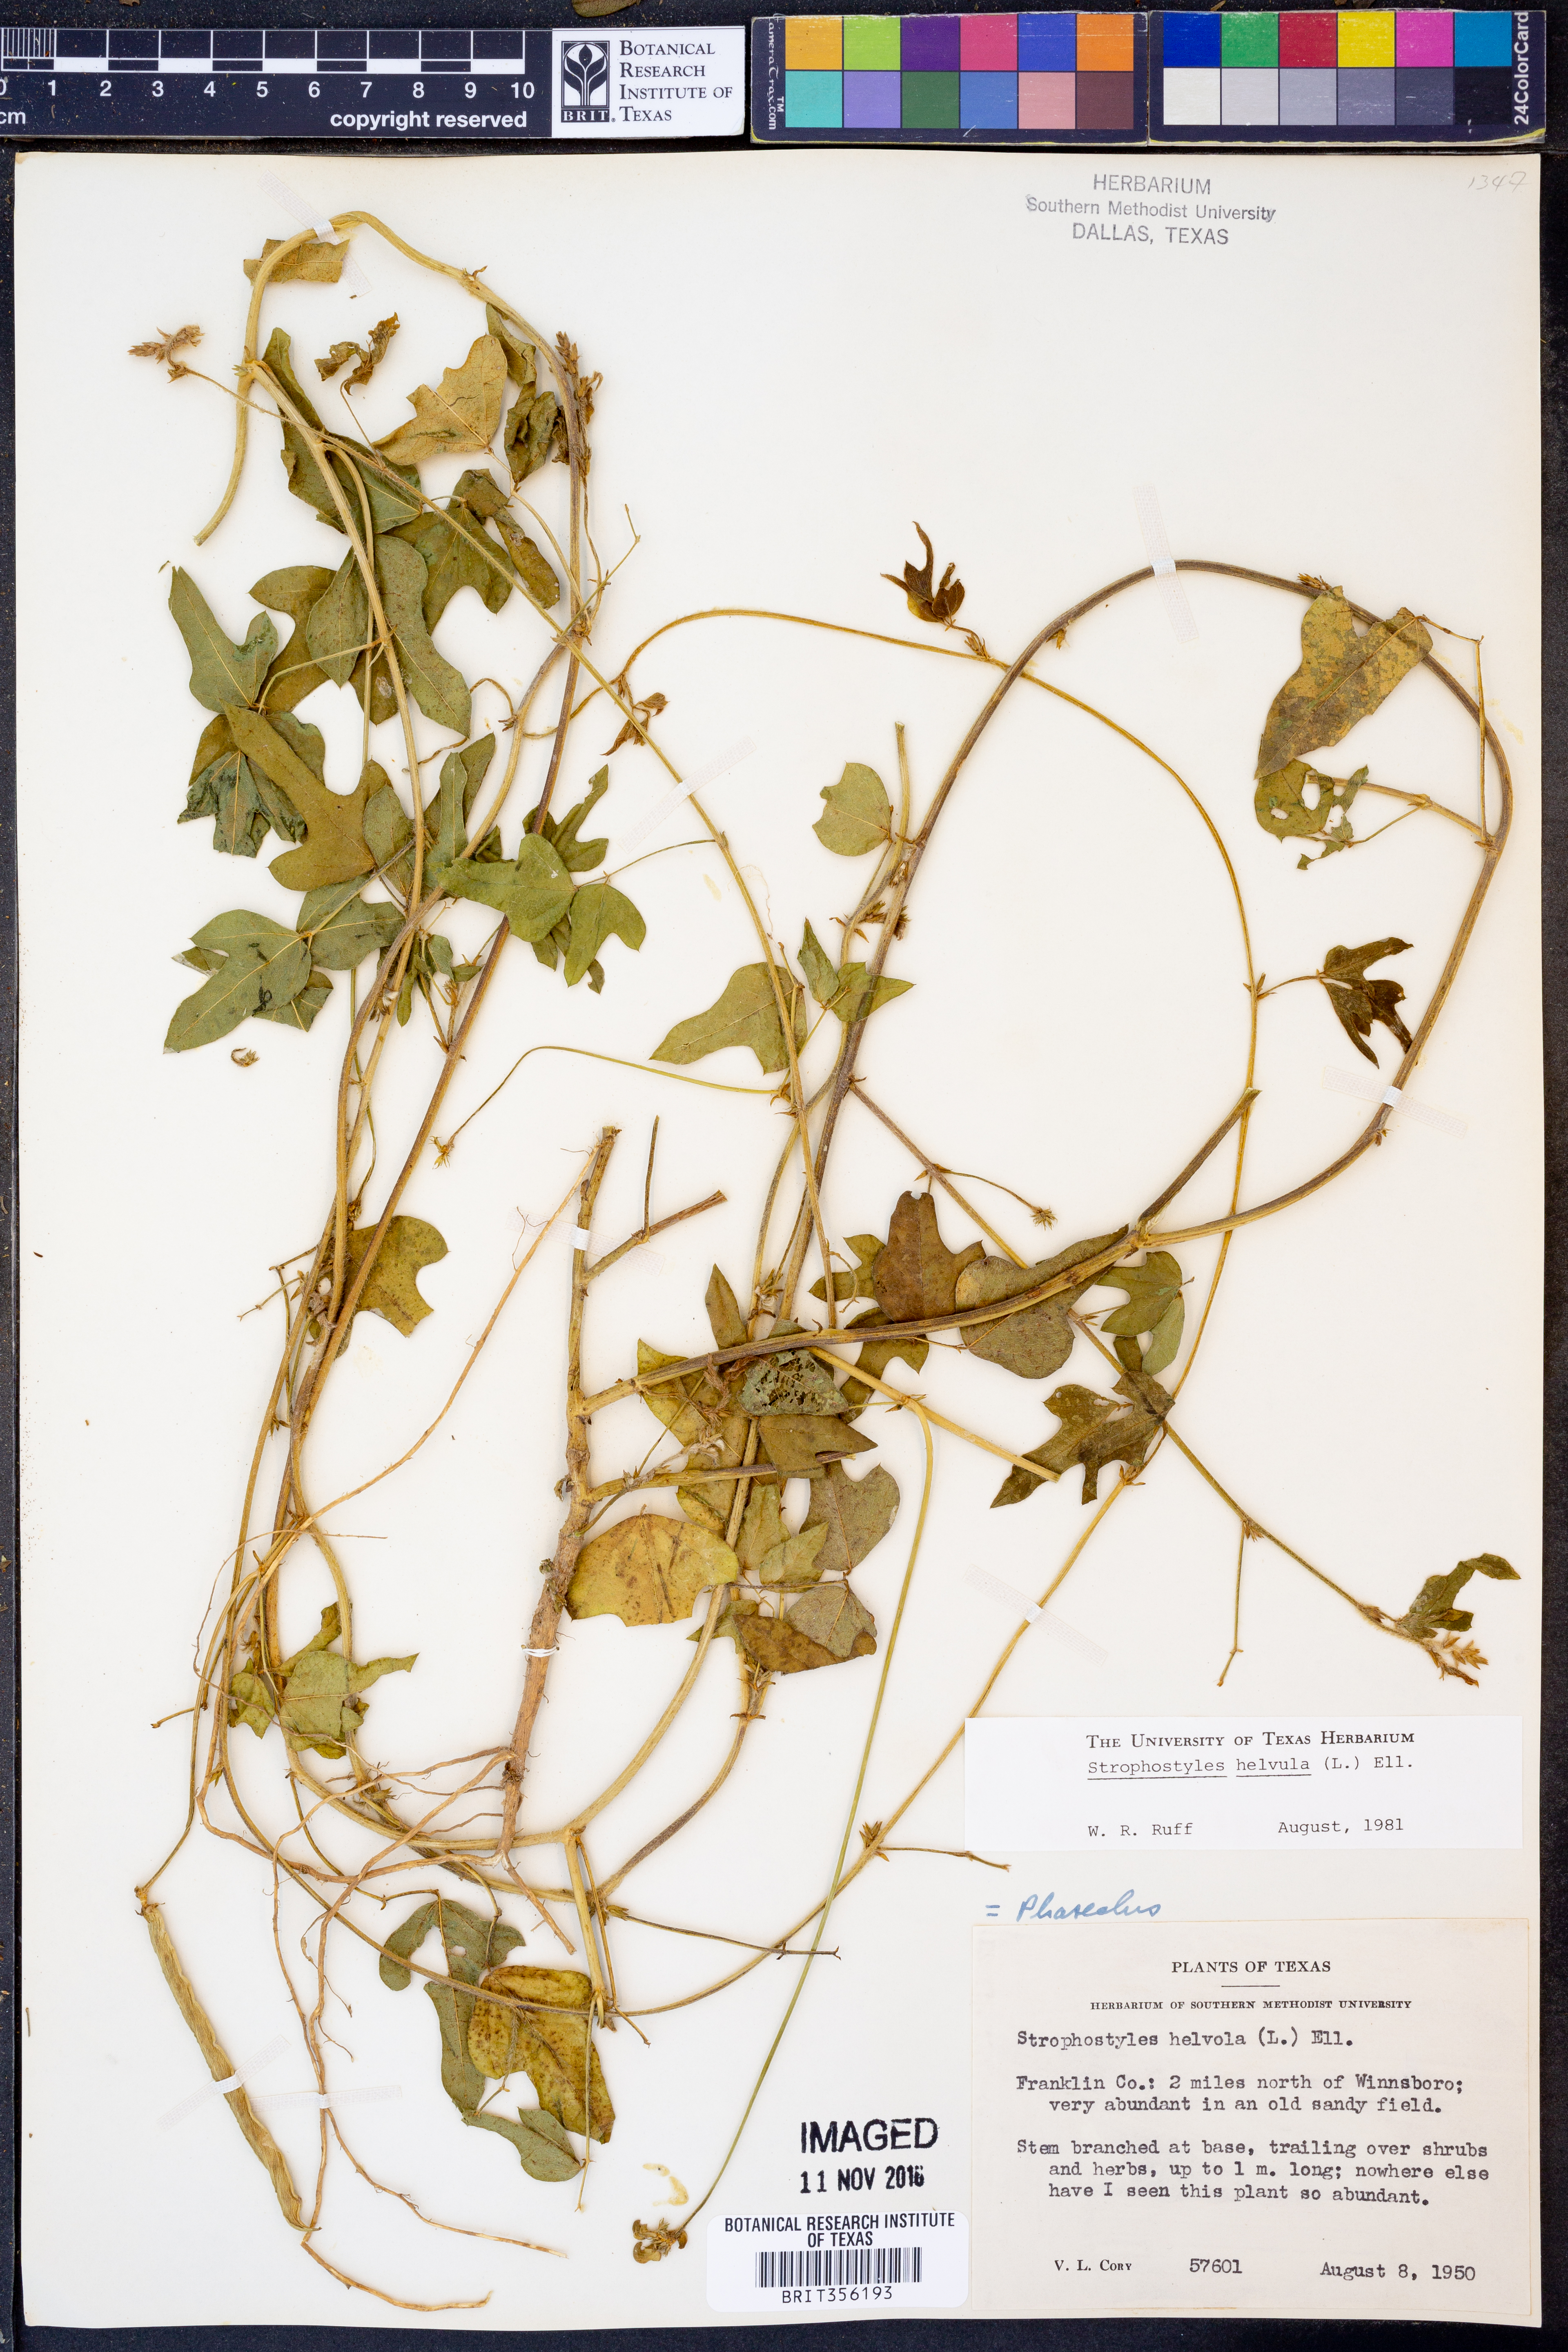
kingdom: Plantae
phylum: Tracheophyta
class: Magnoliopsida
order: Fabales
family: Fabaceae
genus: Strophostyles
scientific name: Strophostyles helvula
